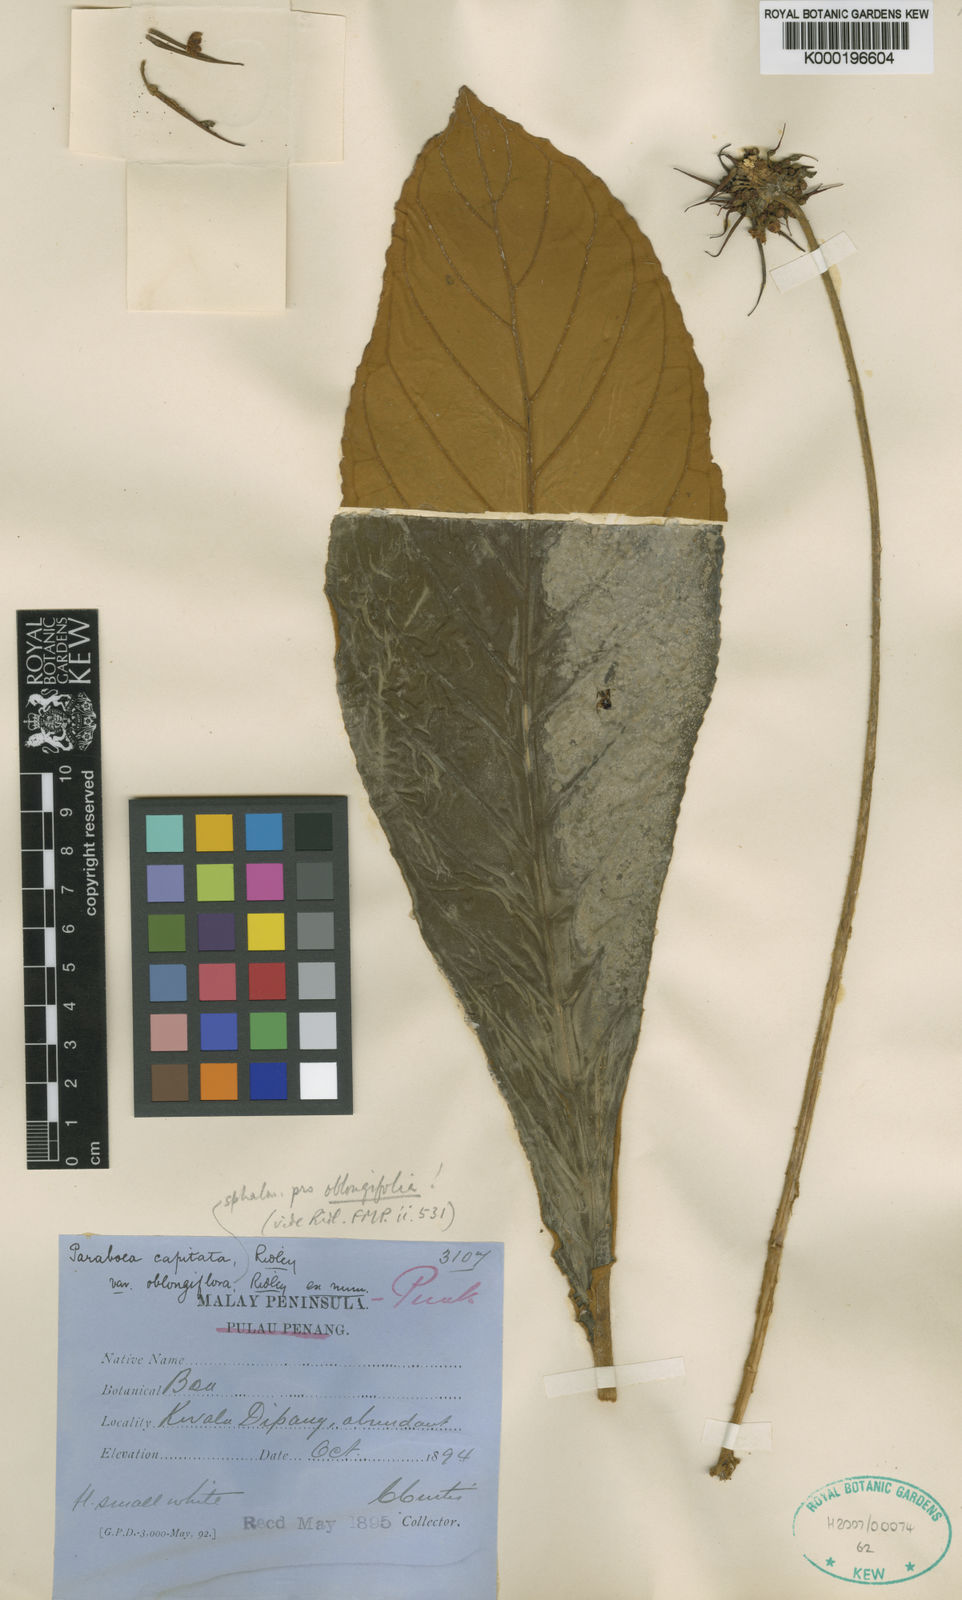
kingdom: Plantae
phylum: Tracheophyta
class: Magnoliopsida
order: Lamiales
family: Gesneriaceae
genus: Paraboea
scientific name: Paraboea capitata
